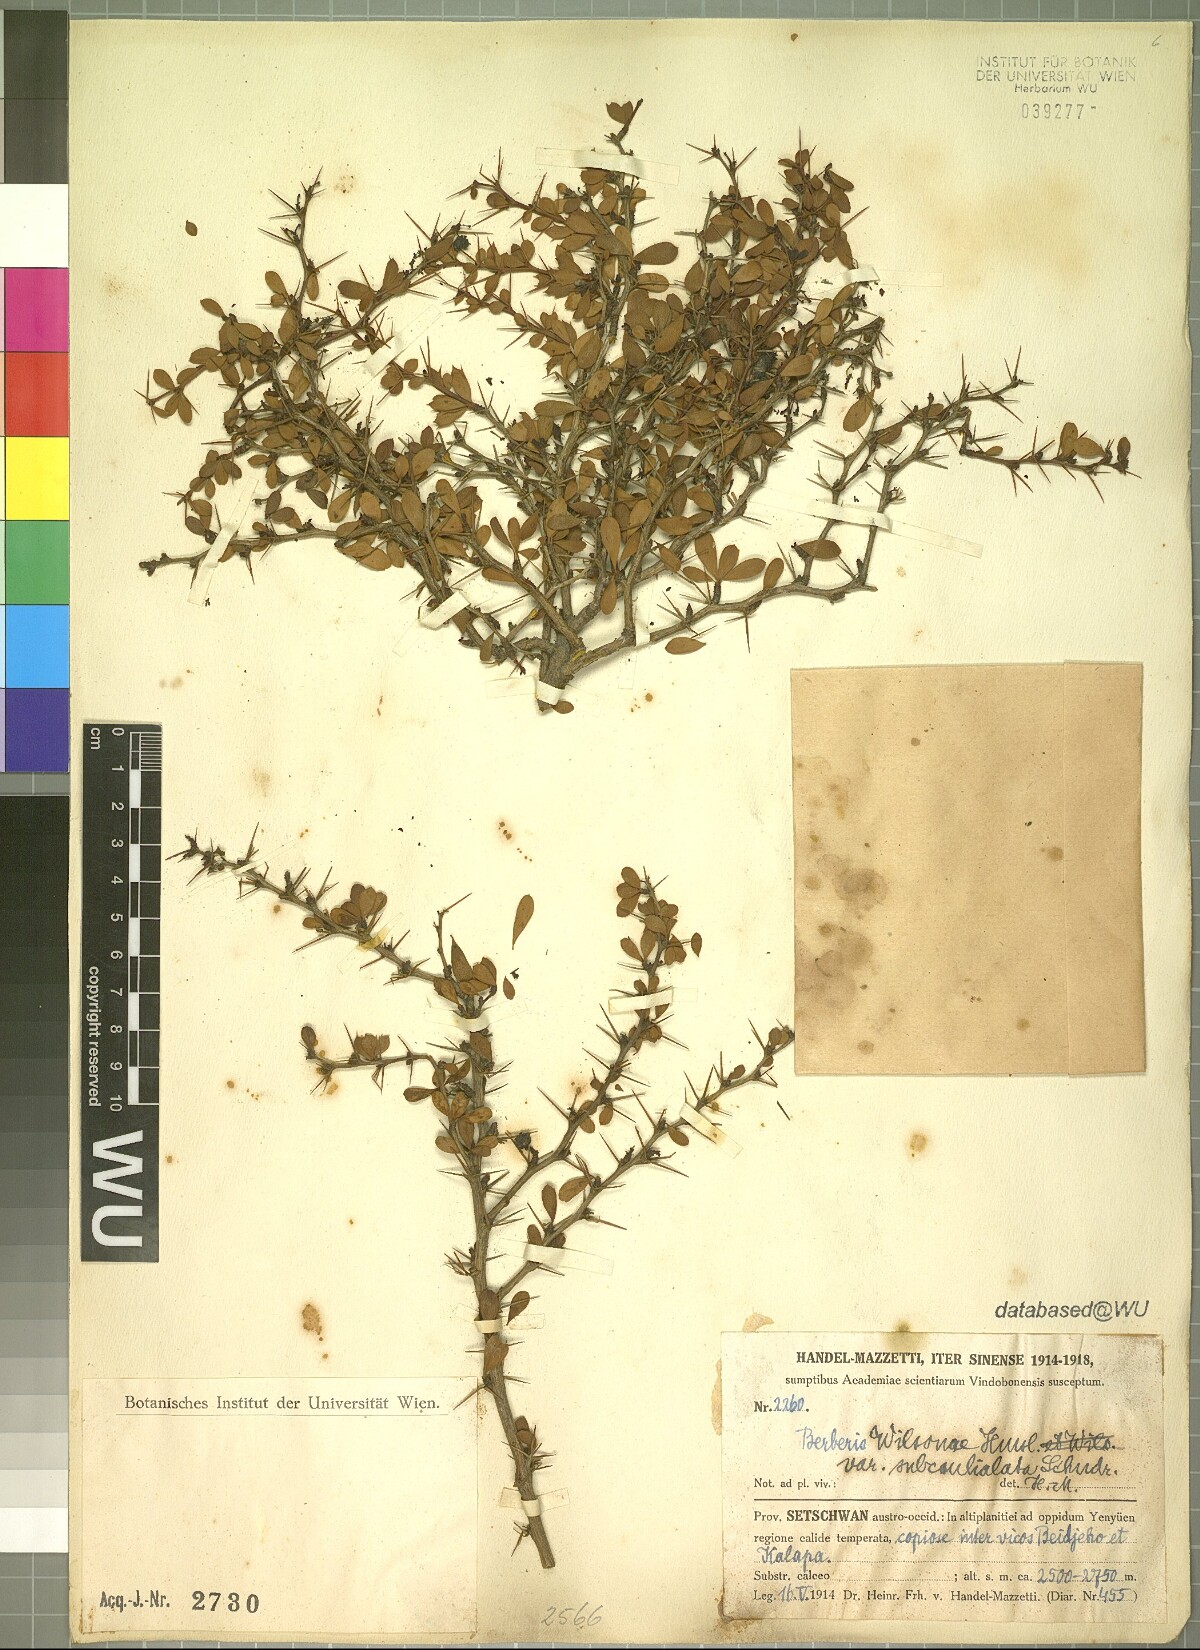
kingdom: Plantae
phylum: Tracheophyta
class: Magnoliopsida
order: Ranunculales
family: Berberidaceae
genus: Berberis
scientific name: Berberis wilsoniae
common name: Mrs wilson's barberry
